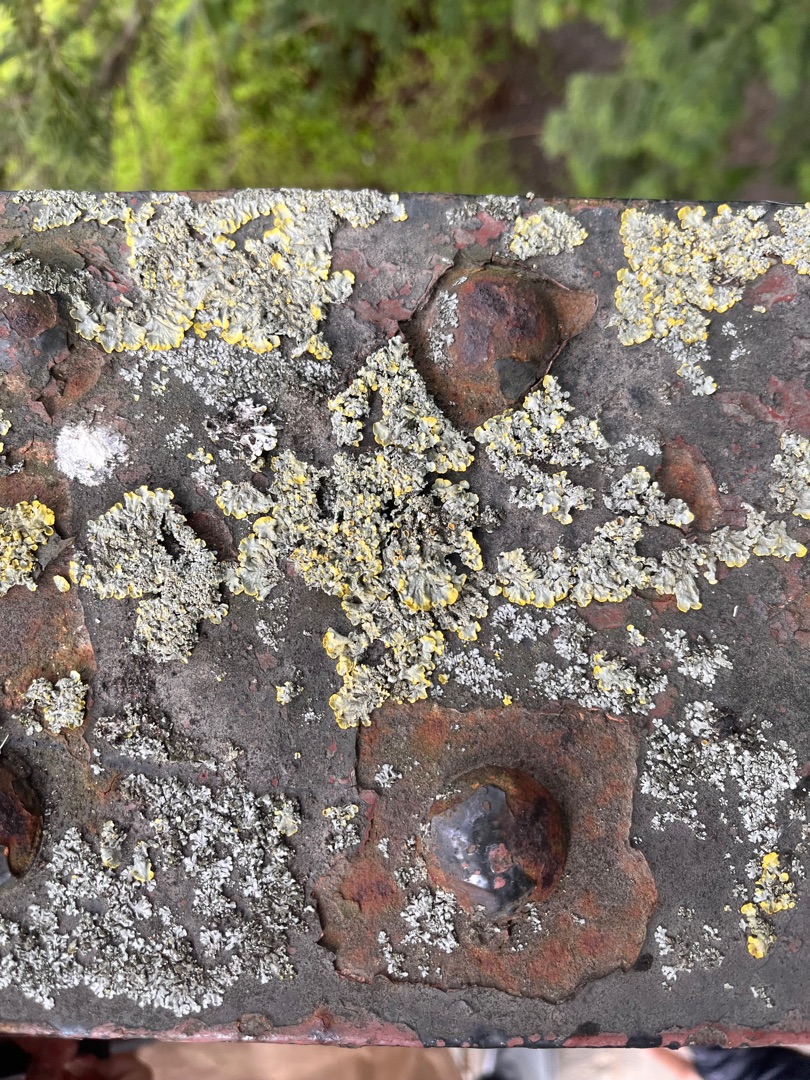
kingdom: Fungi
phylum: Ascomycota
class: Lecanoromycetes
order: Teloschistales
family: Teloschistaceae
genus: Xanthoria
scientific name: Xanthoria parietina
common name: Almindelig væggelav
